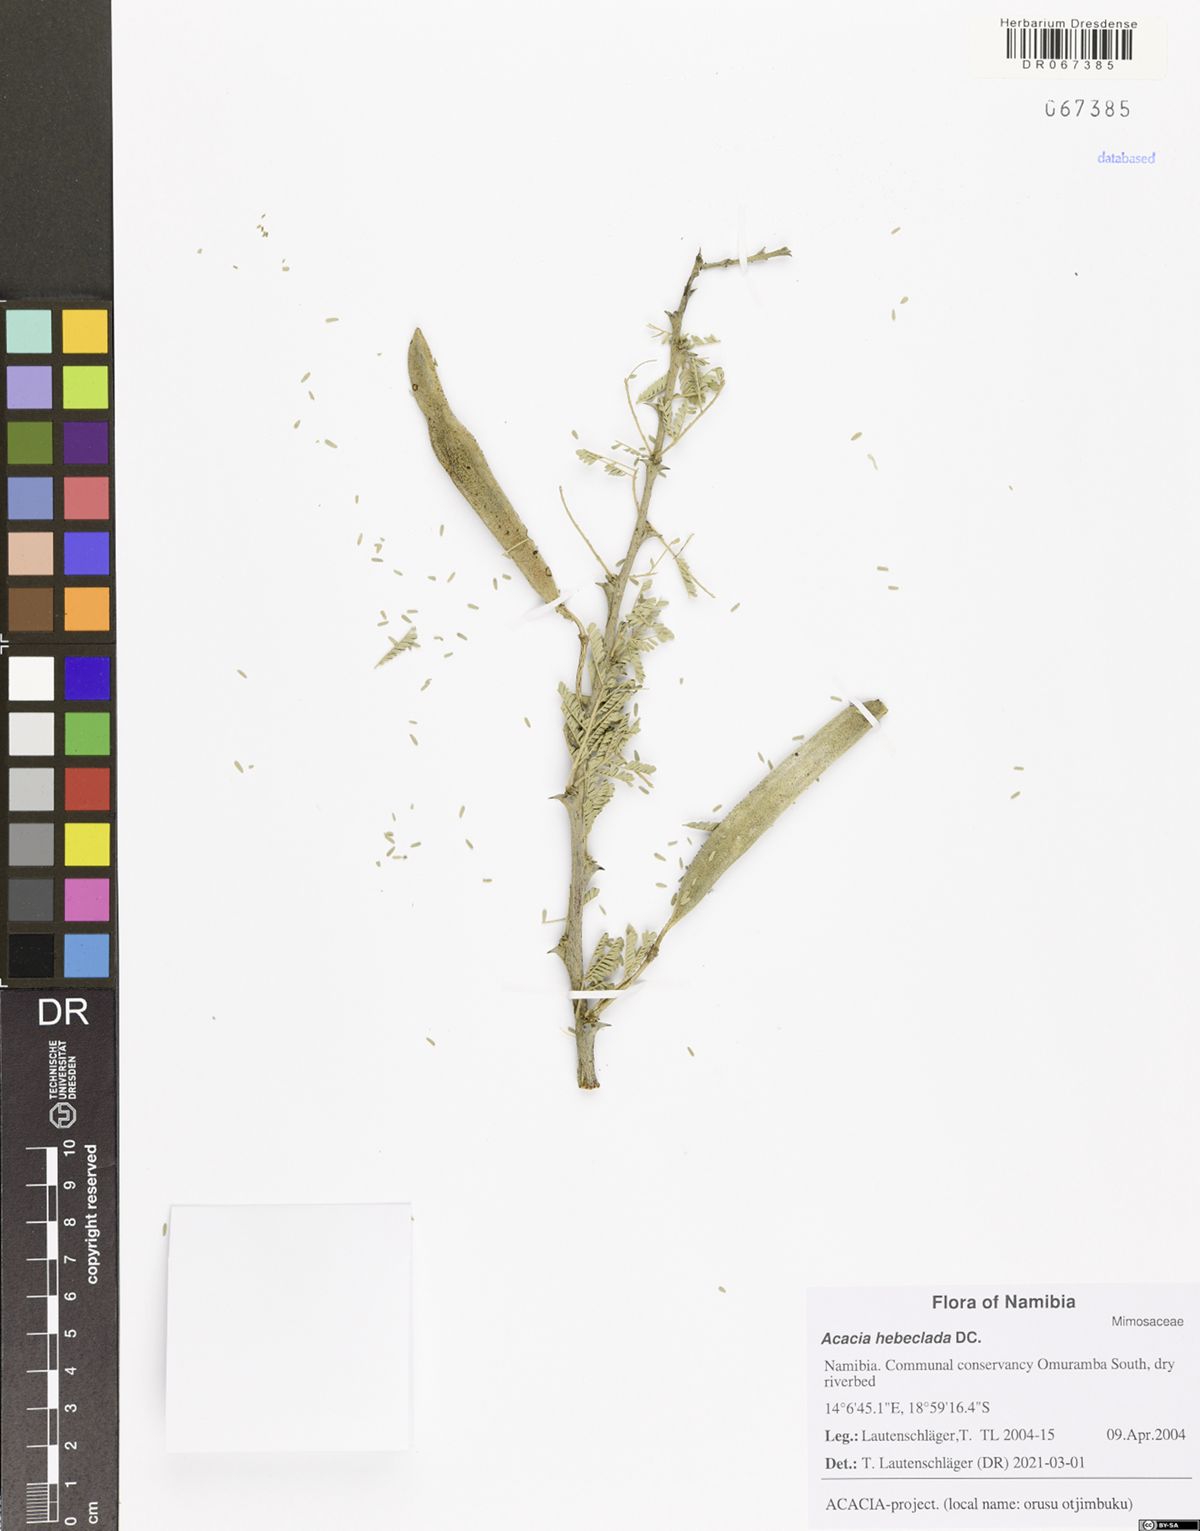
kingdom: Plantae
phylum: Tracheophyta
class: Magnoliopsida
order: Fabales
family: Fabaceae
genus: Vachellia
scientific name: Vachellia hebeclada
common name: Candle thorn
